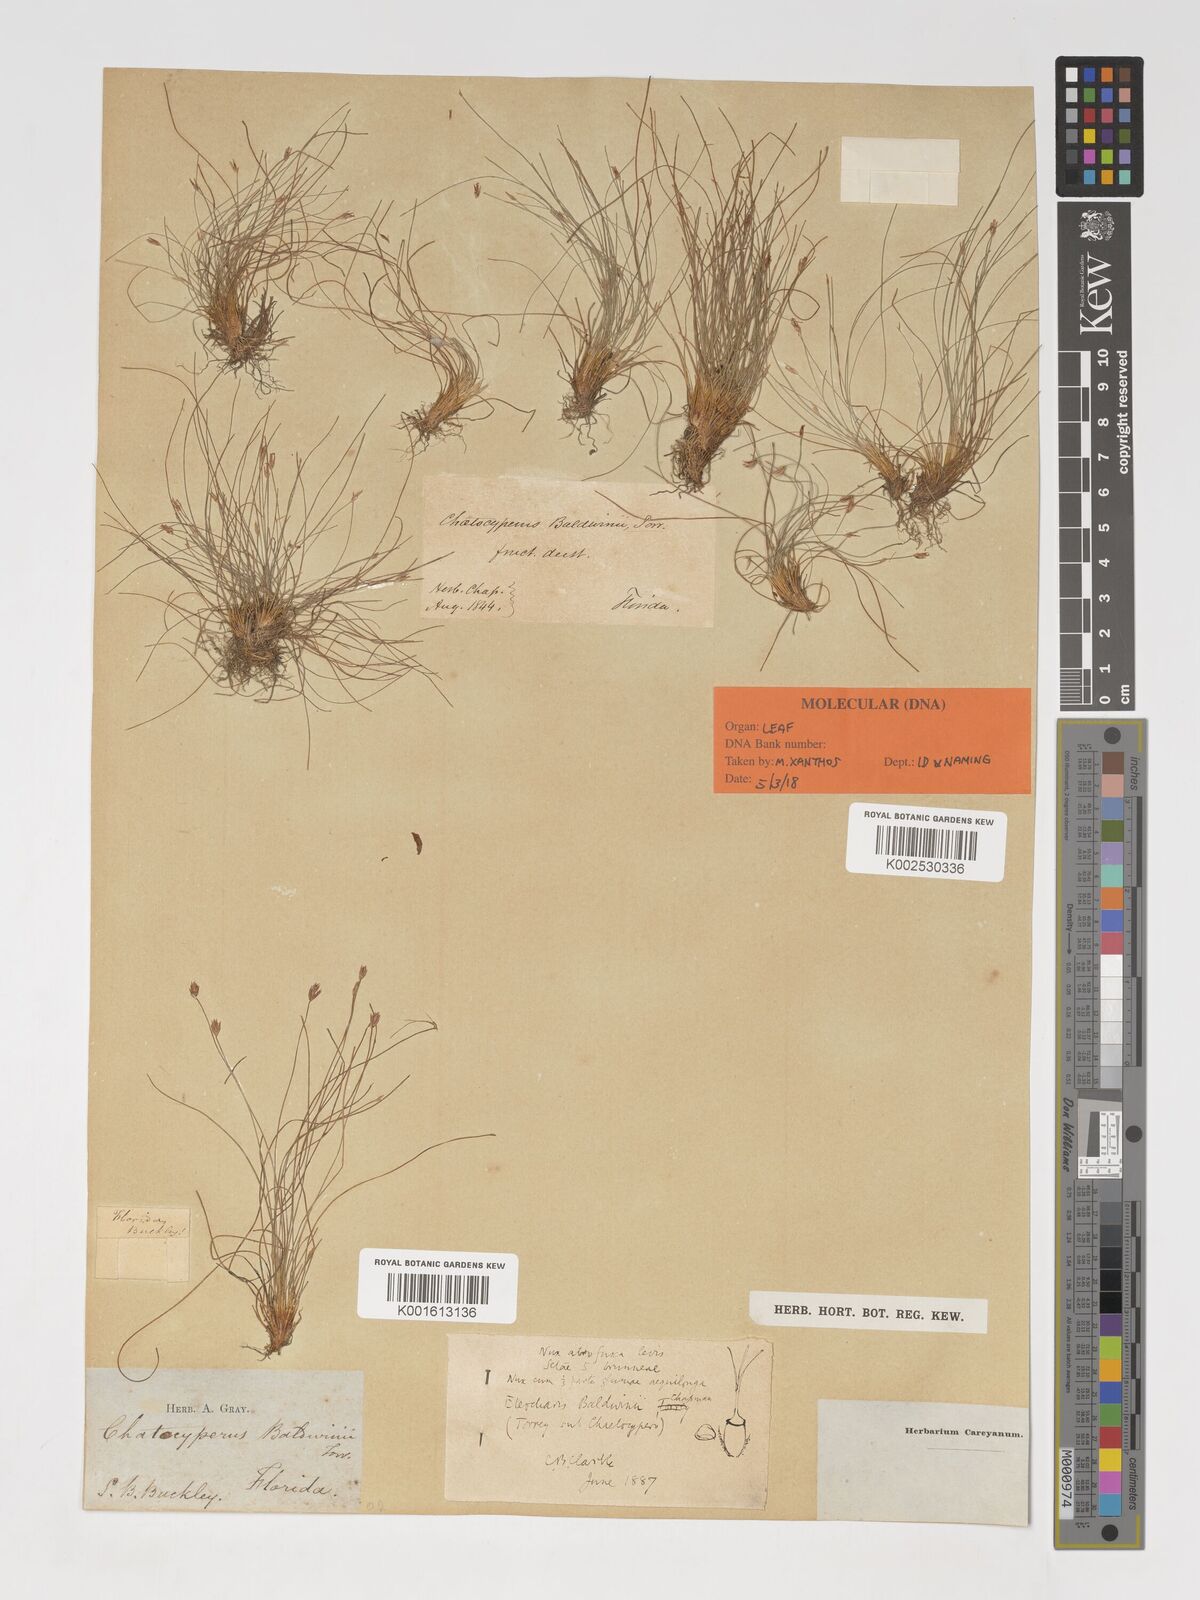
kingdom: Plantae
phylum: Tracheophyta
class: Liliopsida
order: Poales
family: Cyperaceae
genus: Eleocharis
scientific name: Eleocharis baldwinii
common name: Baldwin's spike-rush
